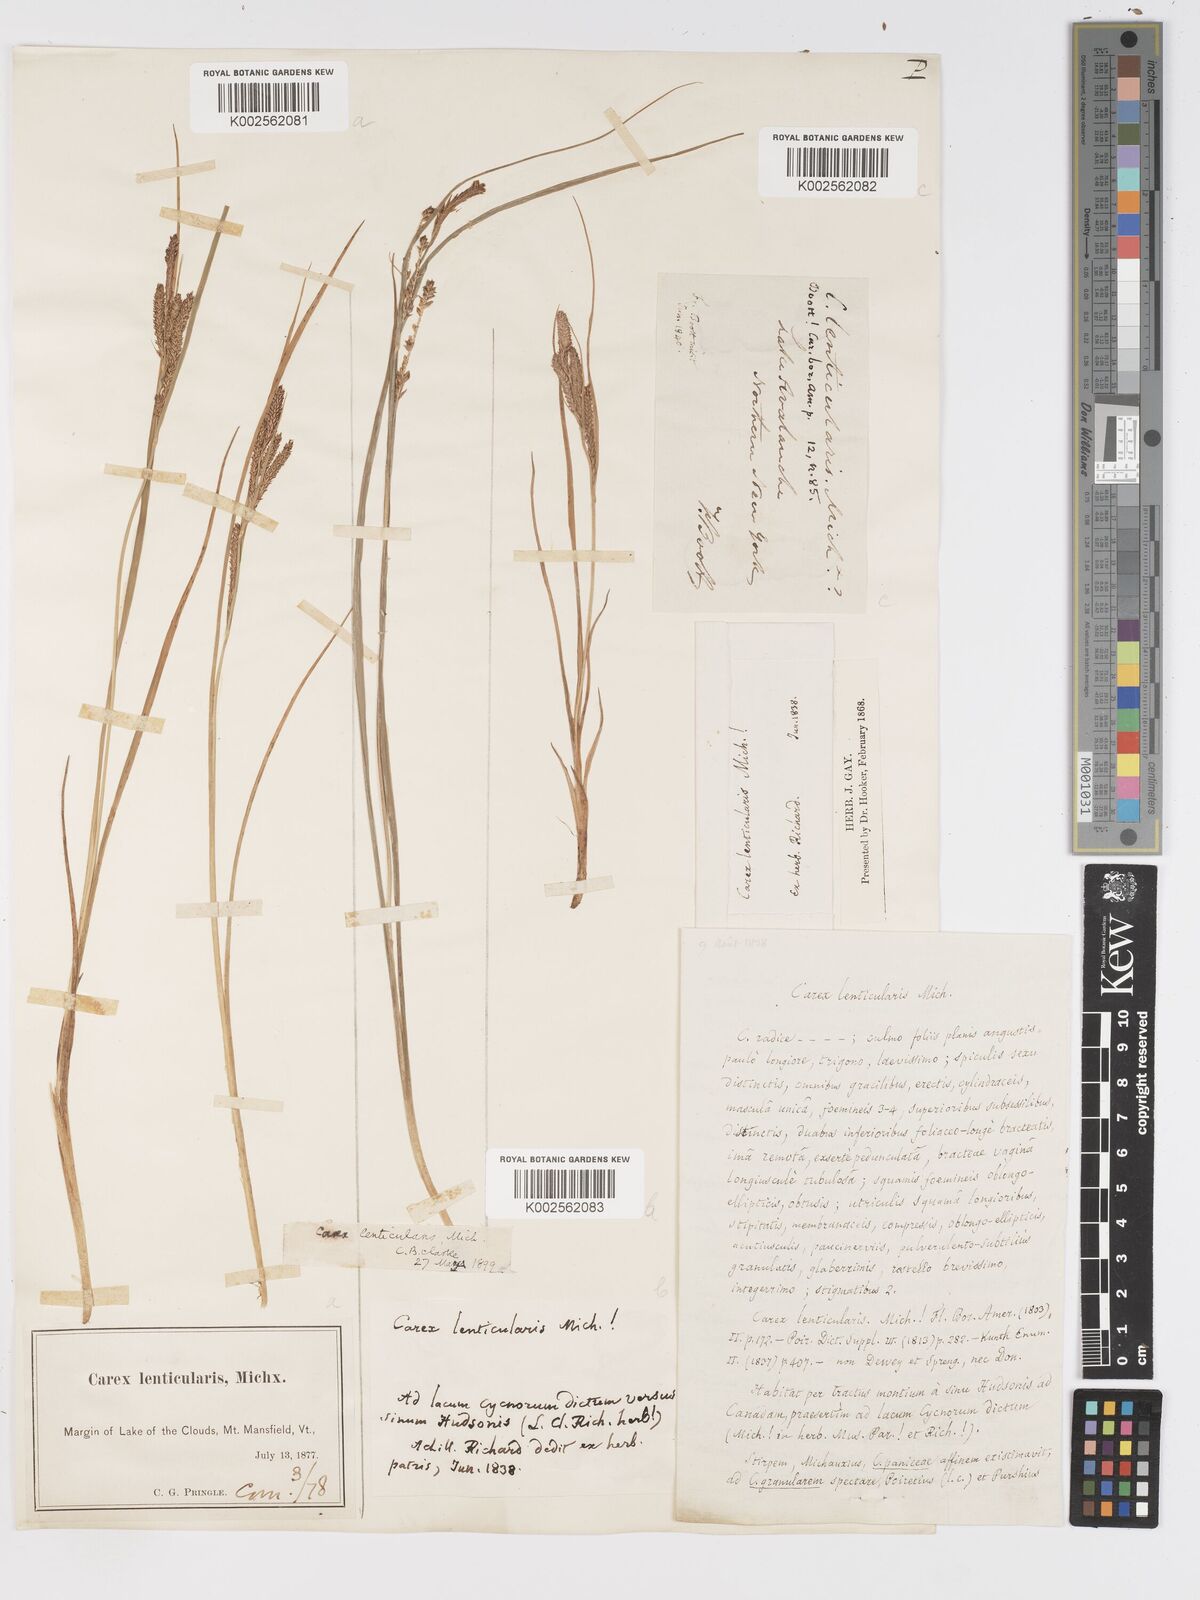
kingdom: Plantae
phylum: Tracheophyta
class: Liliopsida
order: Poales
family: Cyperaceae
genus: Carex
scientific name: Carex lenticularis
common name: Lakeshore sedge
